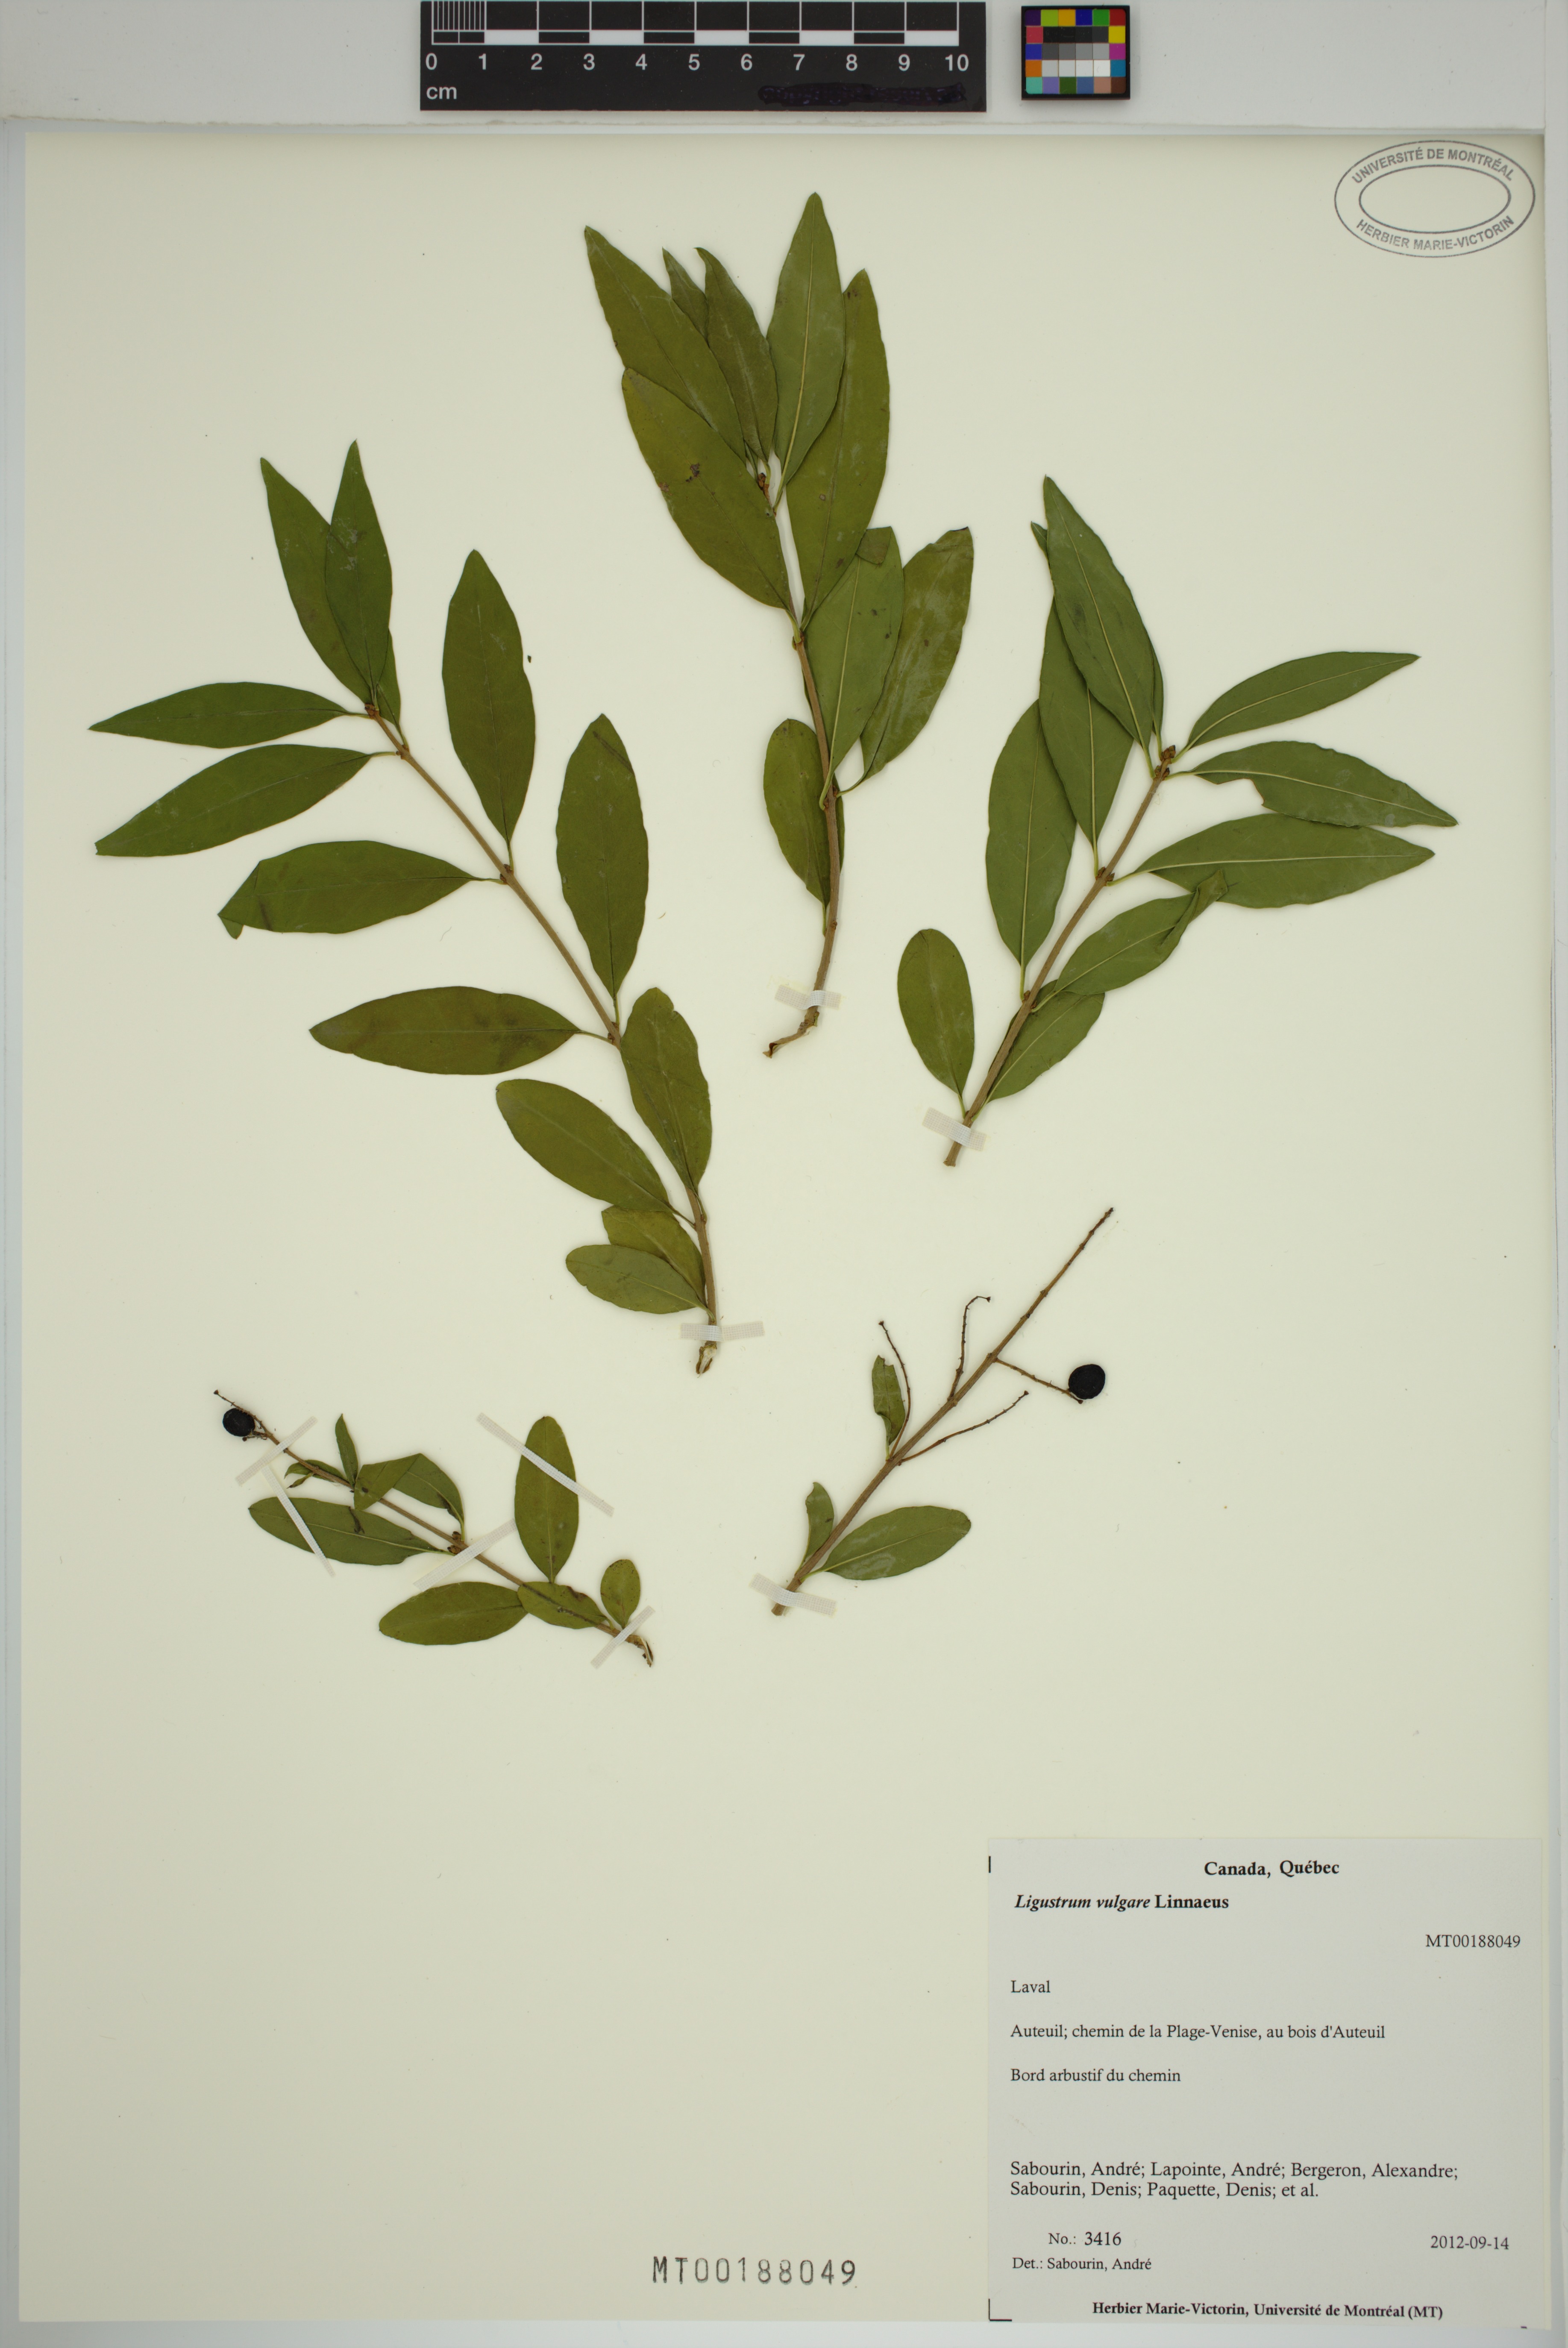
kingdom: Plantae
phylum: Tracheophyta
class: Magnoliopsida
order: Lamiales
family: Oleaceae
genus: Ligustrum
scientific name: Ligustrum vulgare
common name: Wild privet
